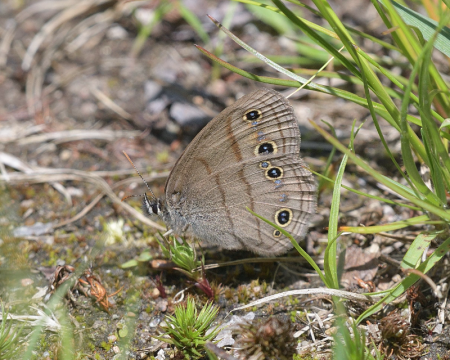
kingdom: Animalia
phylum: Arthropoda
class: Insecta
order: Lepidoptera
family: Nymphalidae
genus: Euptychia
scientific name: Euptychia cymela
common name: Little Wood Satyr
